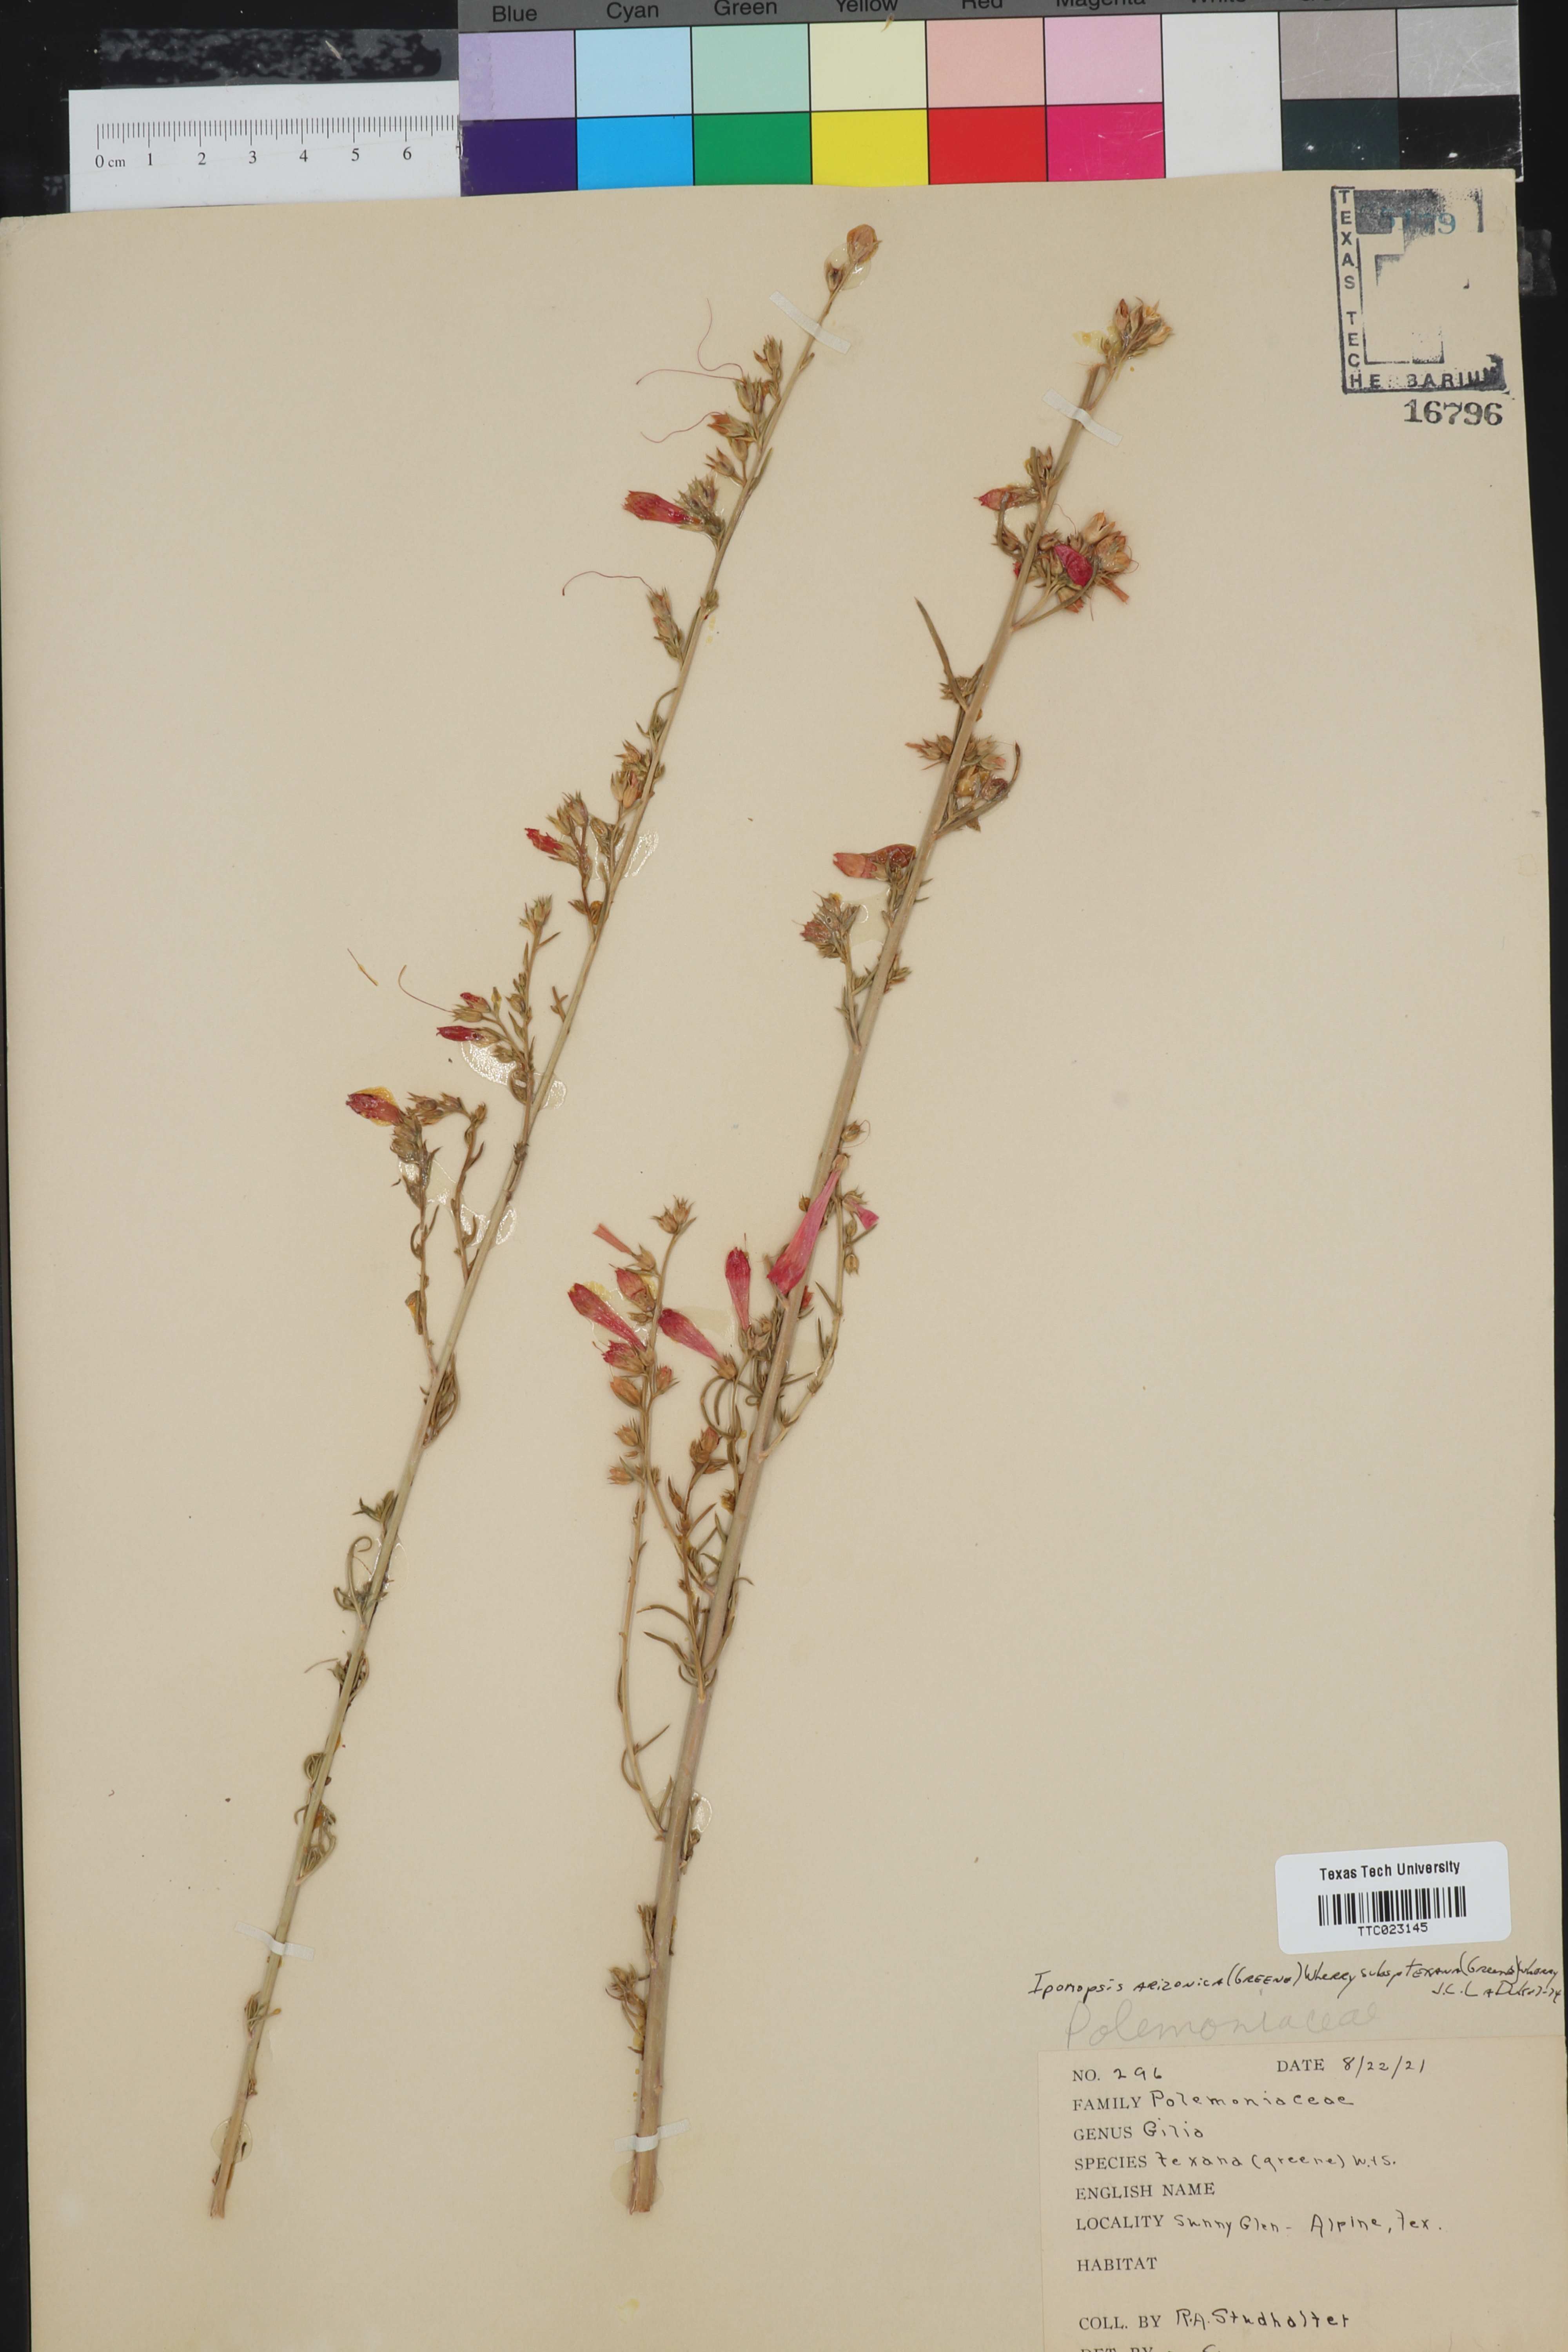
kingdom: Plantae
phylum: Tracheophyta
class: Magnoliopsida
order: Ericales
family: Polemoniaceae
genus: Ipomopsis
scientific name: Ipomopsis aggregata
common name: Scarlet gilia
